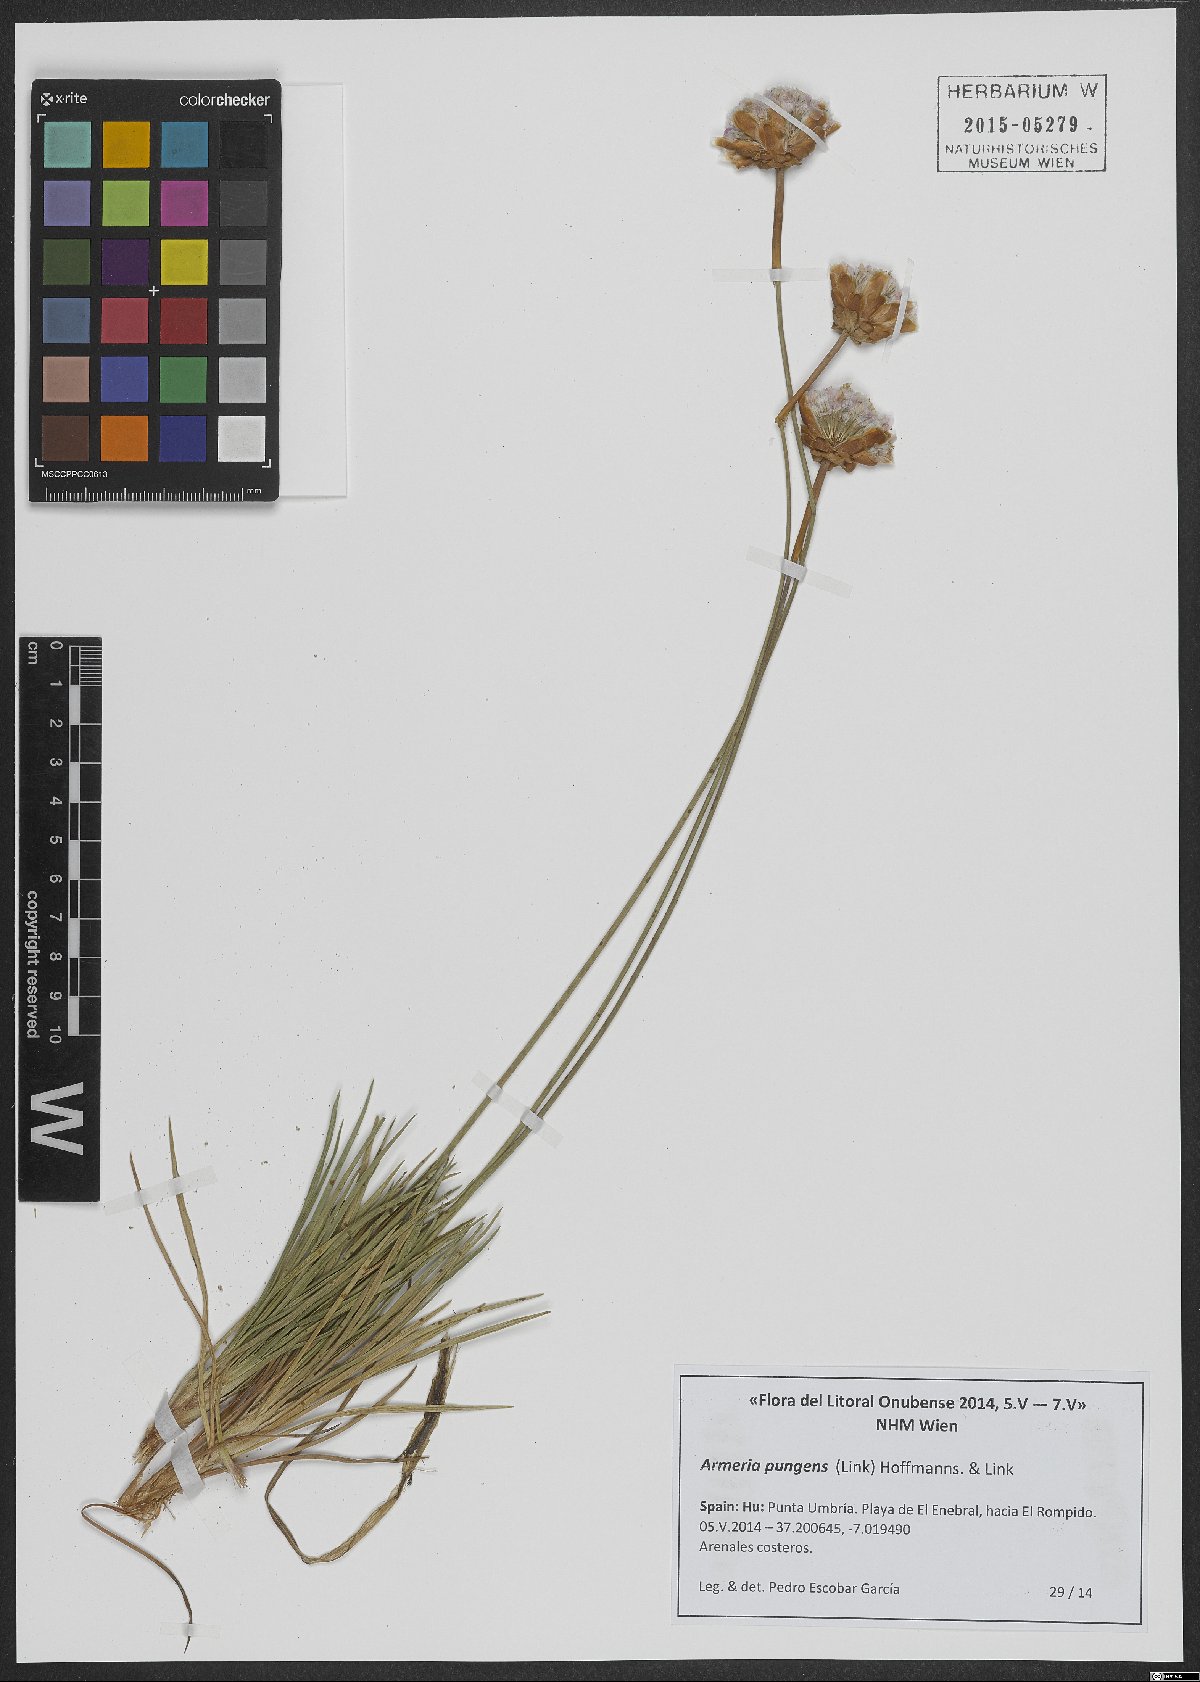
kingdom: Plantae
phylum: Tracheophyta
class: Magnoliopsida
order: Caryophyllales
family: Plumbaginaceae
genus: Armeria
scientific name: Armeria pungens
